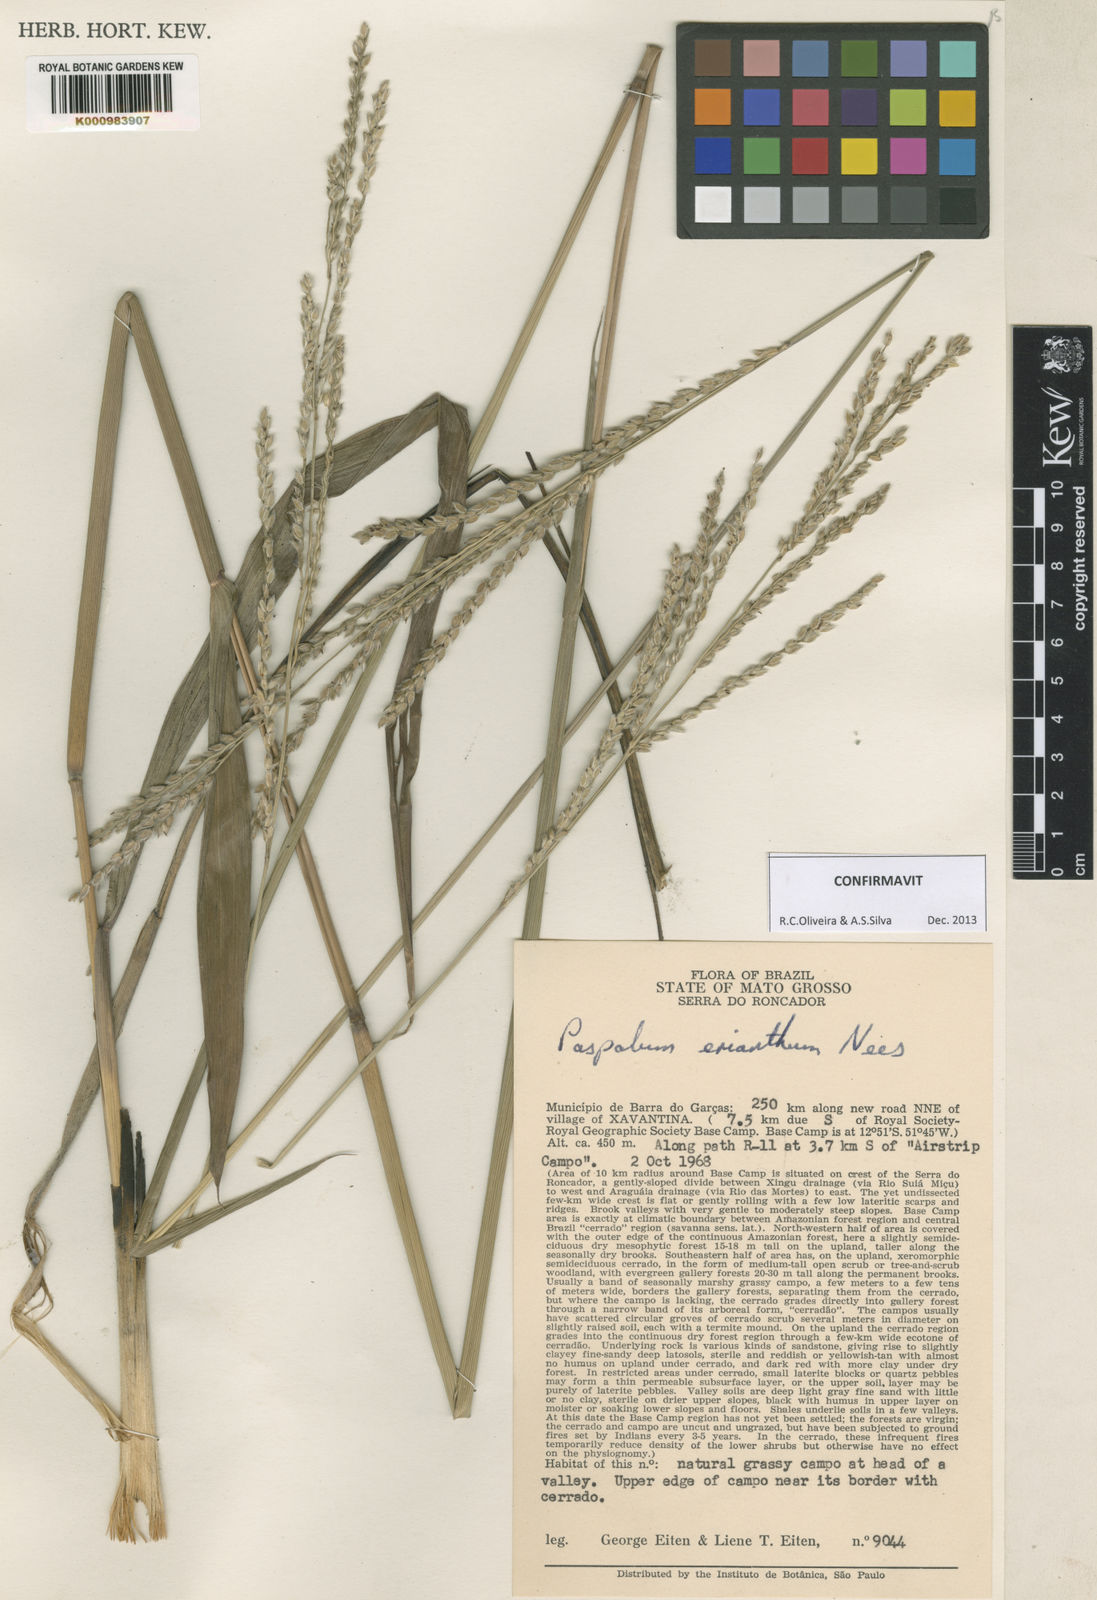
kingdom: Plantae
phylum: Tracheophyta
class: Liliopsida
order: Poales
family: Poaceae
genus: Paspalum
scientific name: Paspalum erianthum
